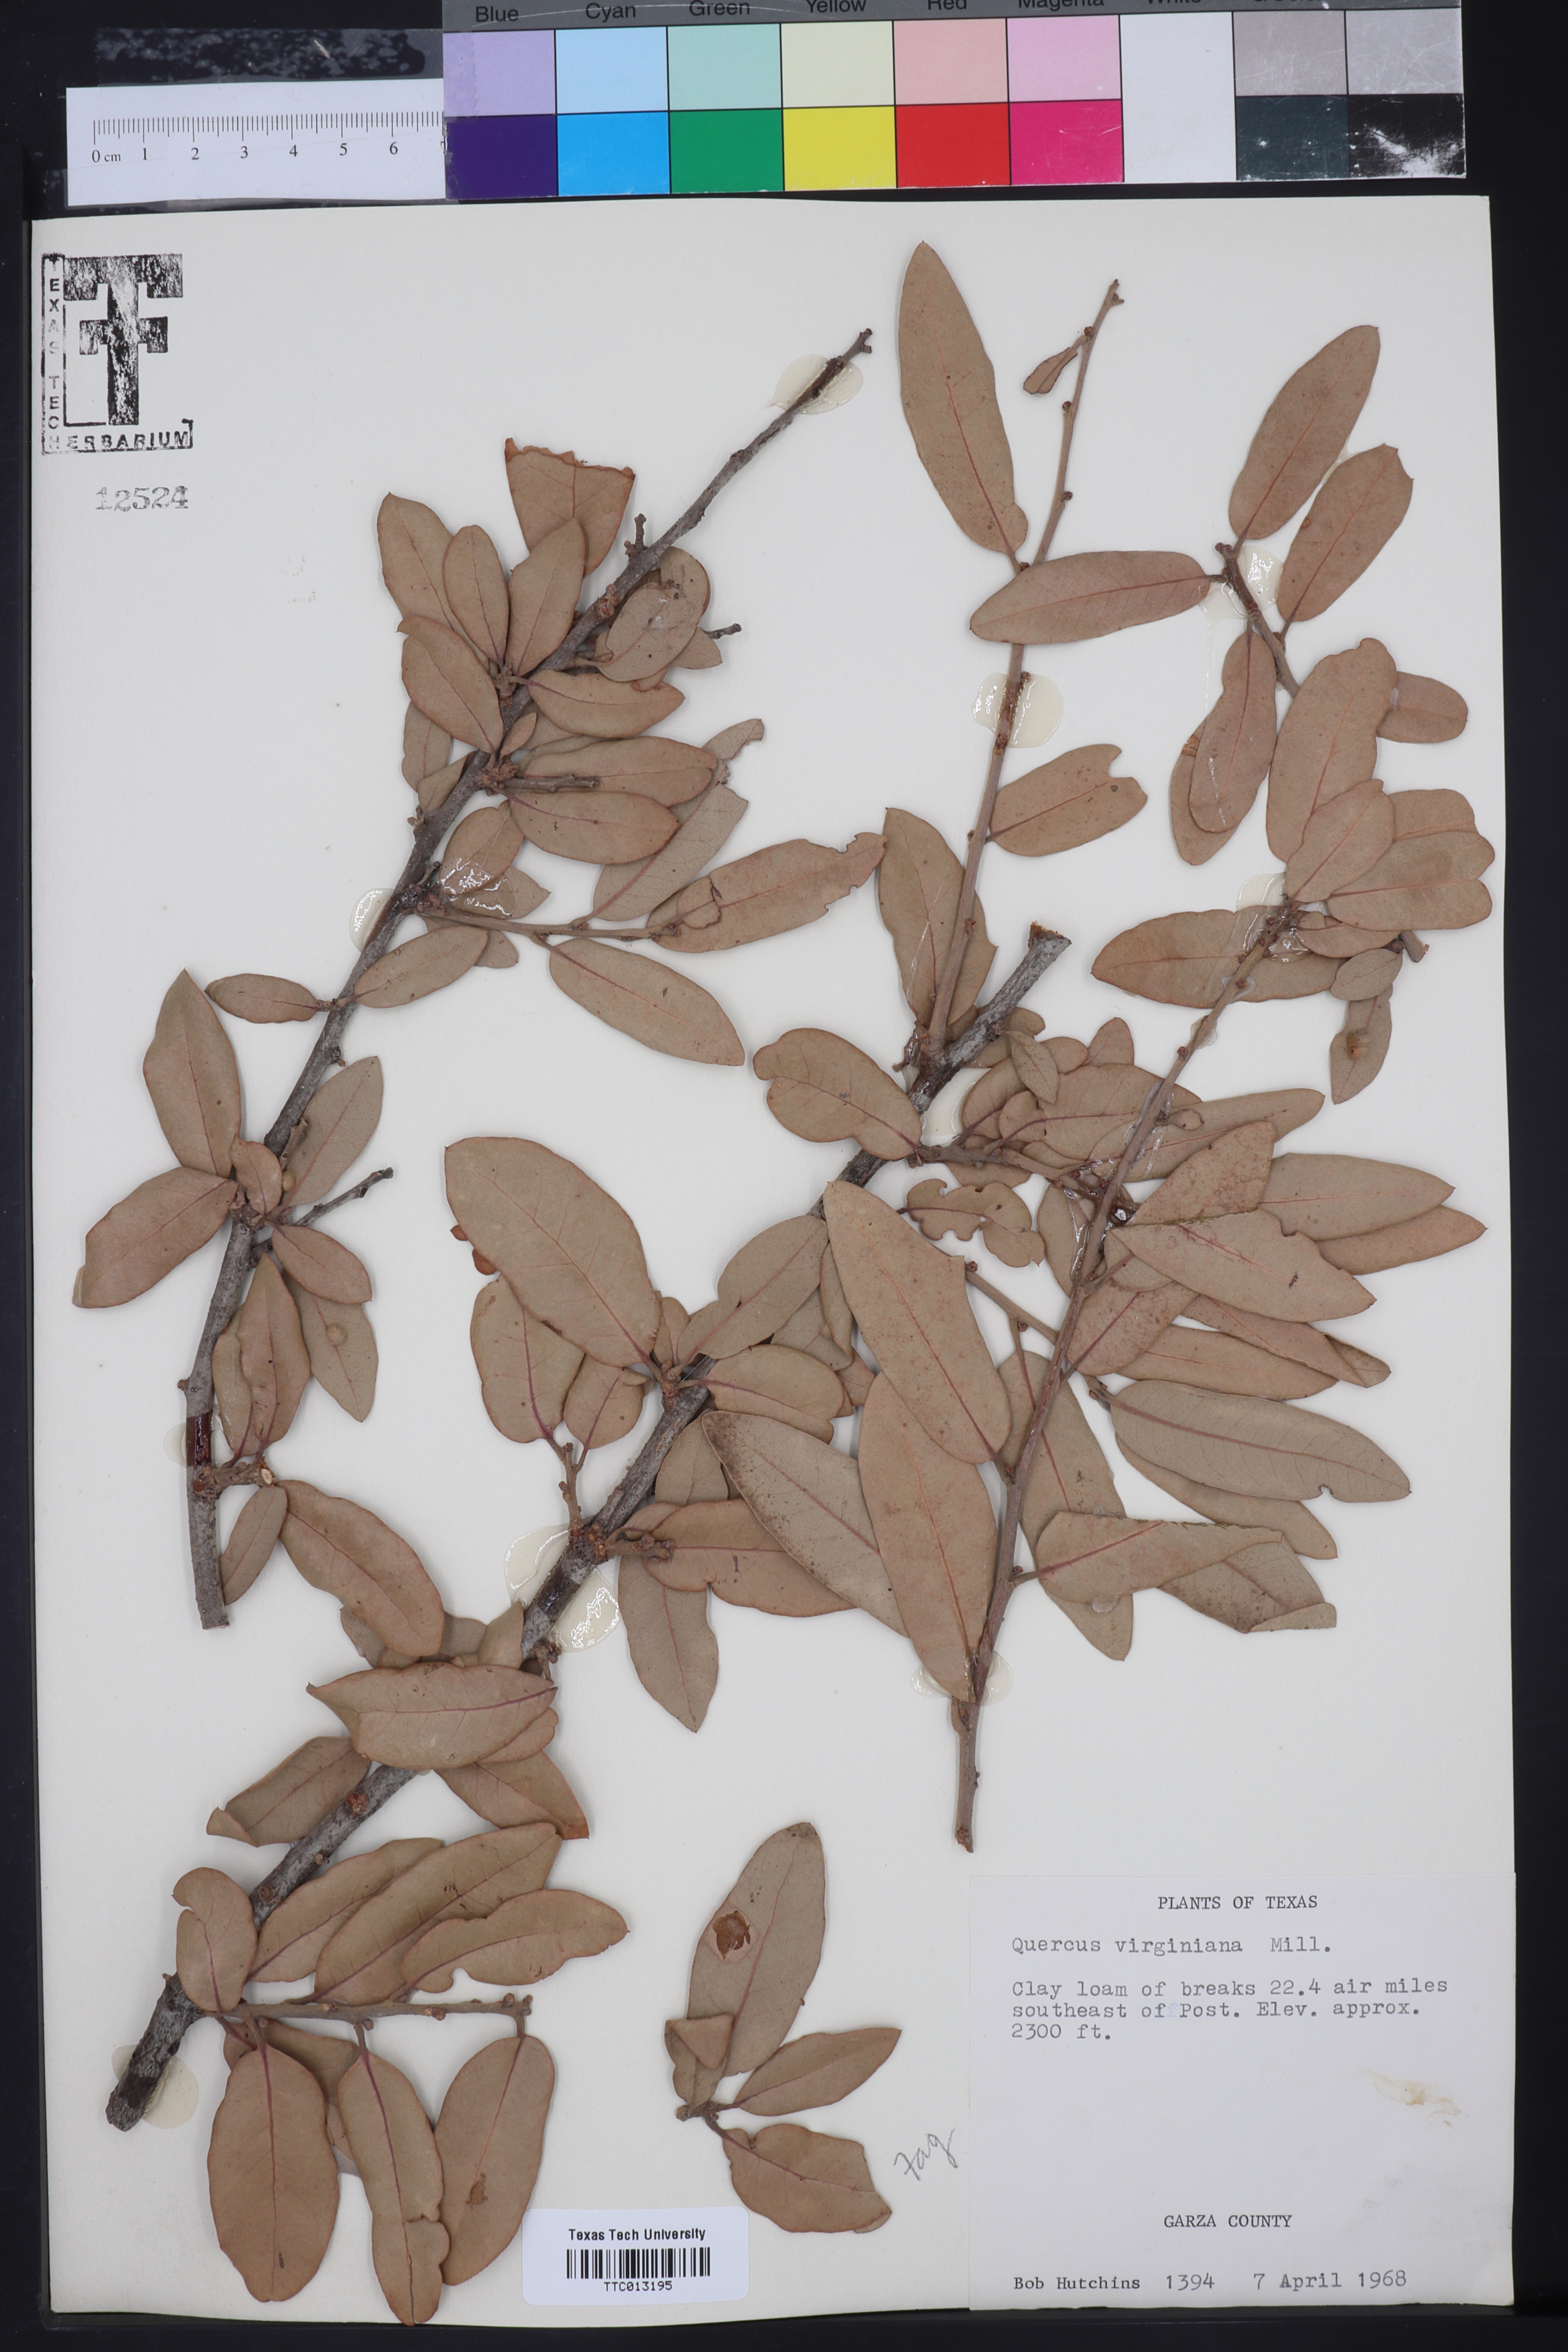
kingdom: Plantae
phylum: Tracheophyta
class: Magnoliopsida
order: Fagales
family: Fagaceae
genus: Quercus
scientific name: Quercus virginiana
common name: Southern live oak
